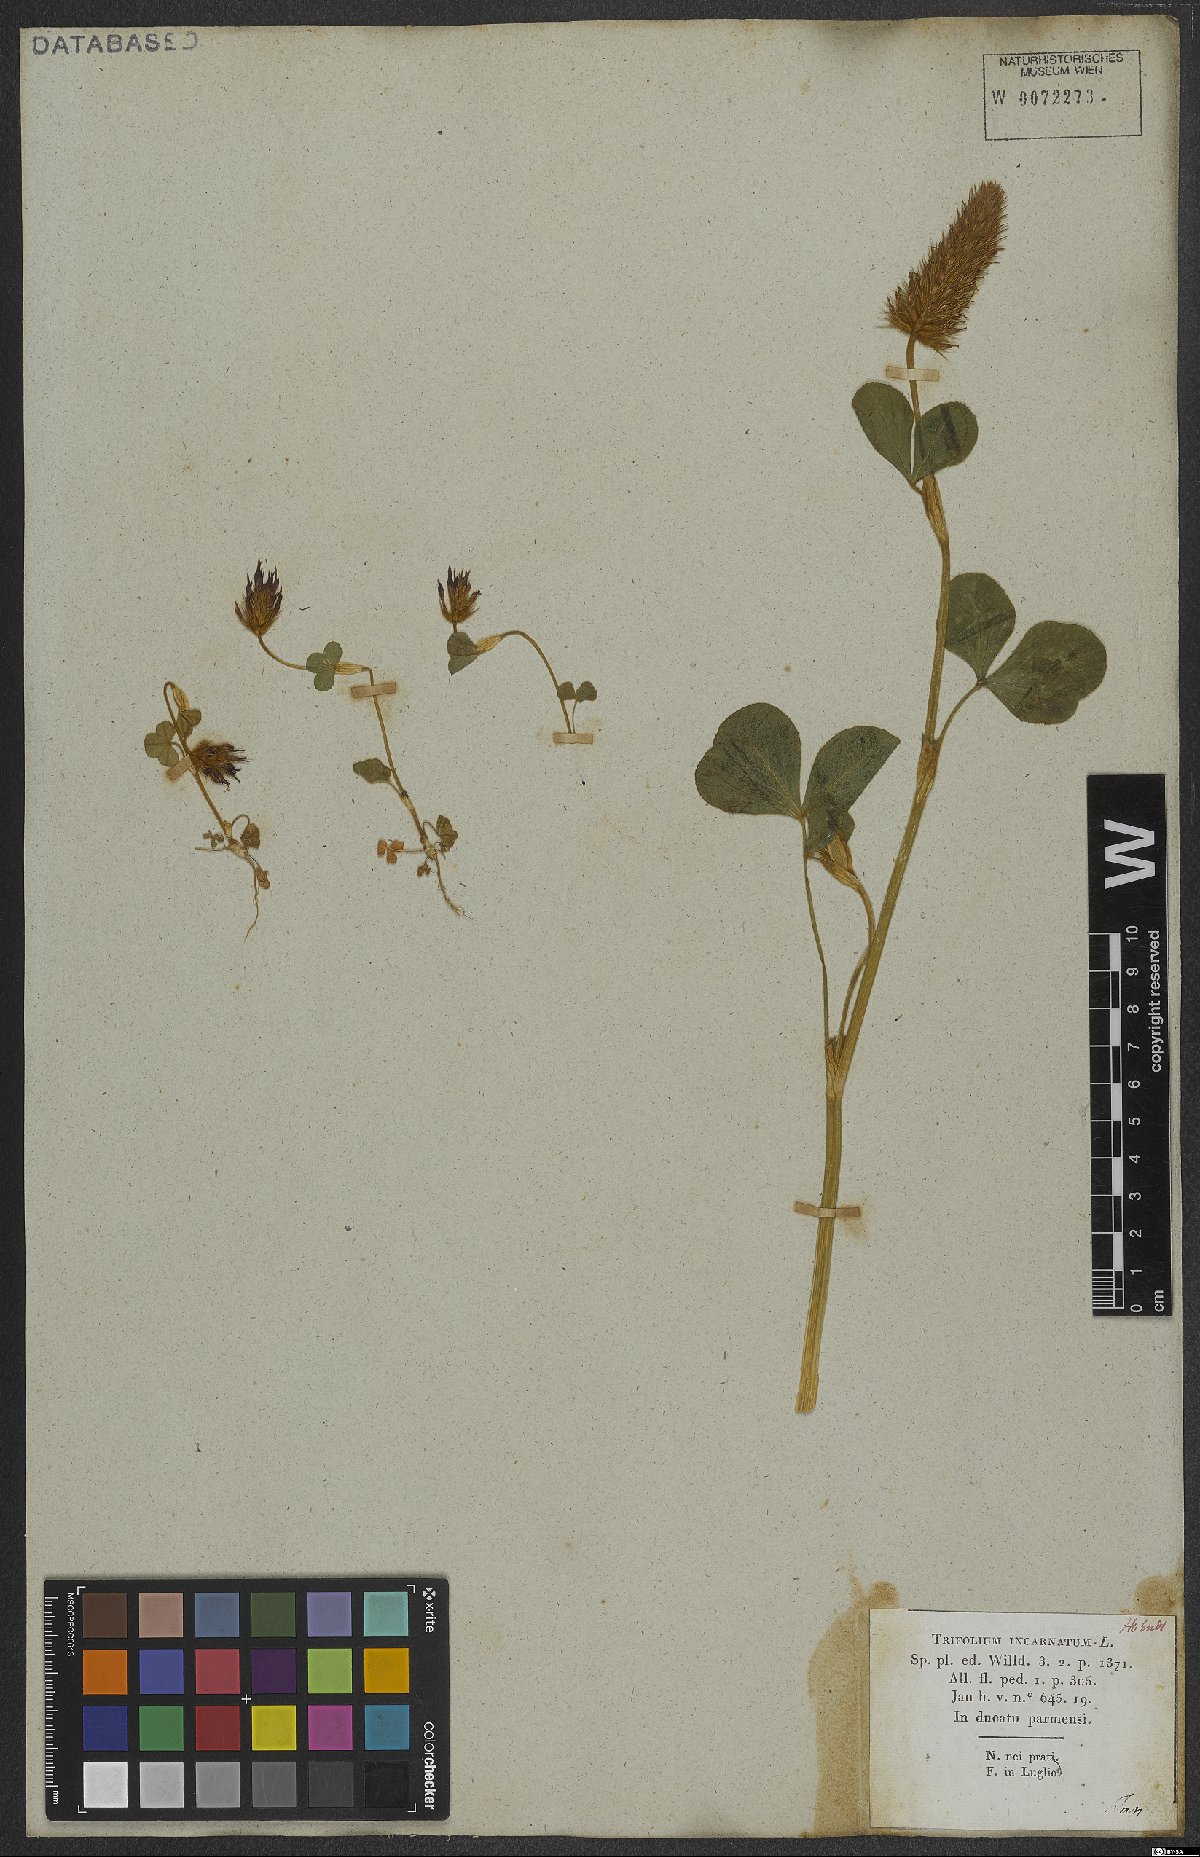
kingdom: Plantae
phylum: Tracheophyta
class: Magnoliopsida
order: Fabales
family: Fabaceae
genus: Trifolium
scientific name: Trifolium incarnatum
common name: Crimson clover
